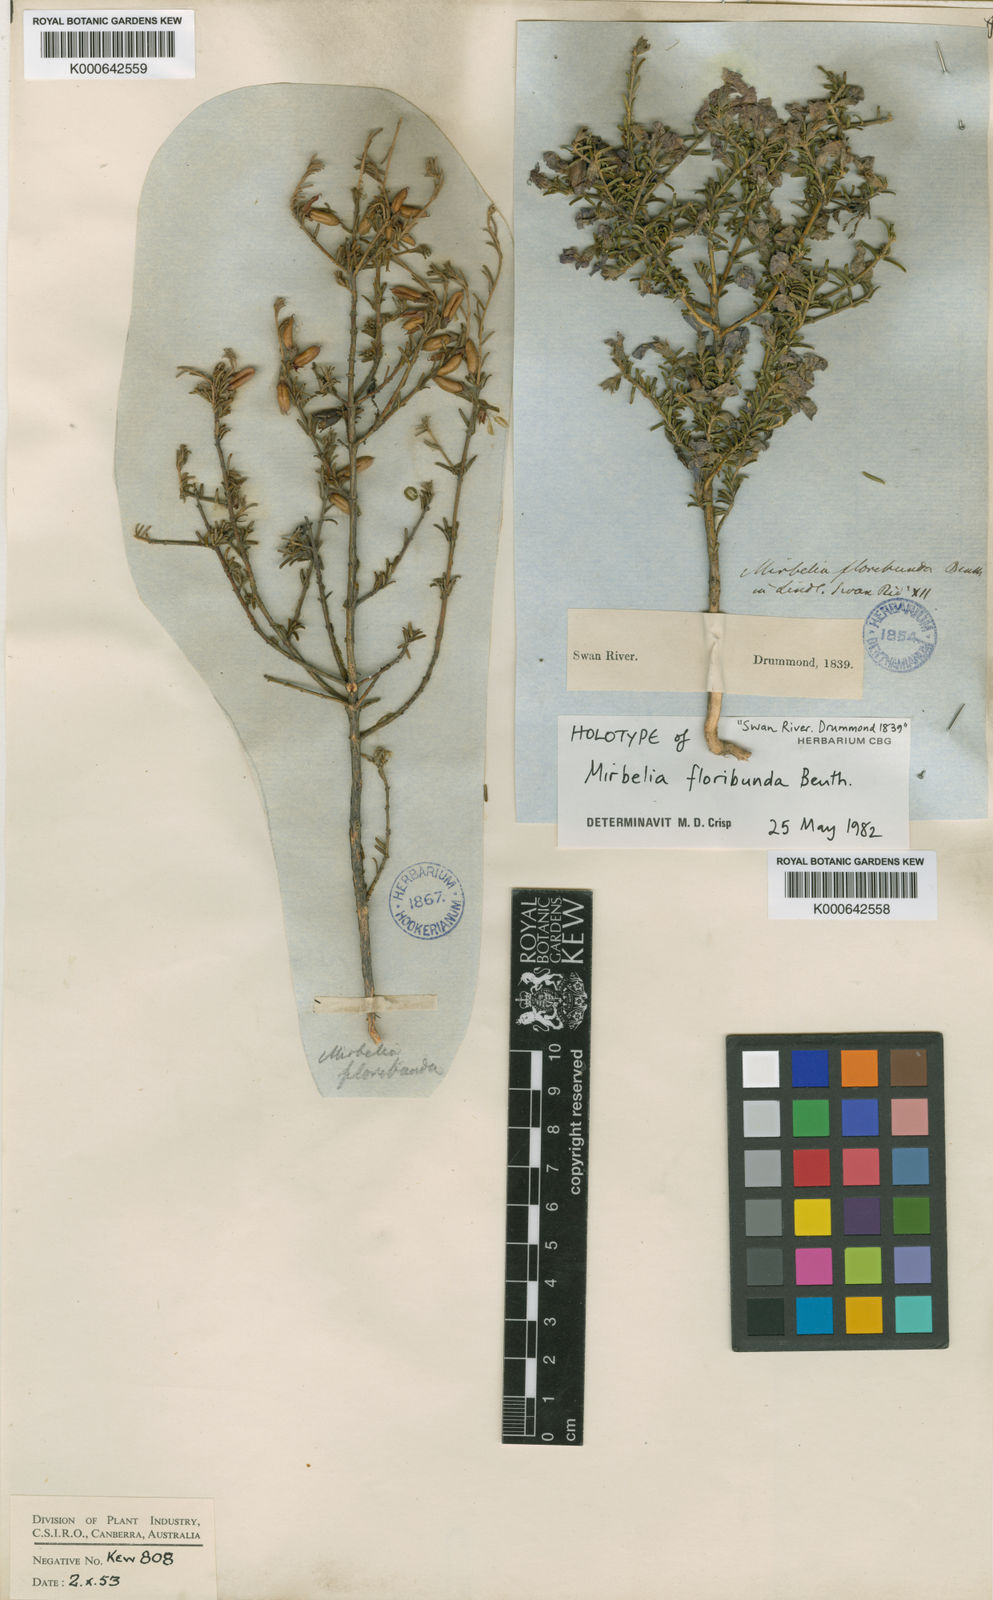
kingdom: Plantae
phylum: Tracheophyta
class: Magnoliopsida
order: Fabales
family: Fabaceae
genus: Mirbelia
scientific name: Mirbelia floribunda
